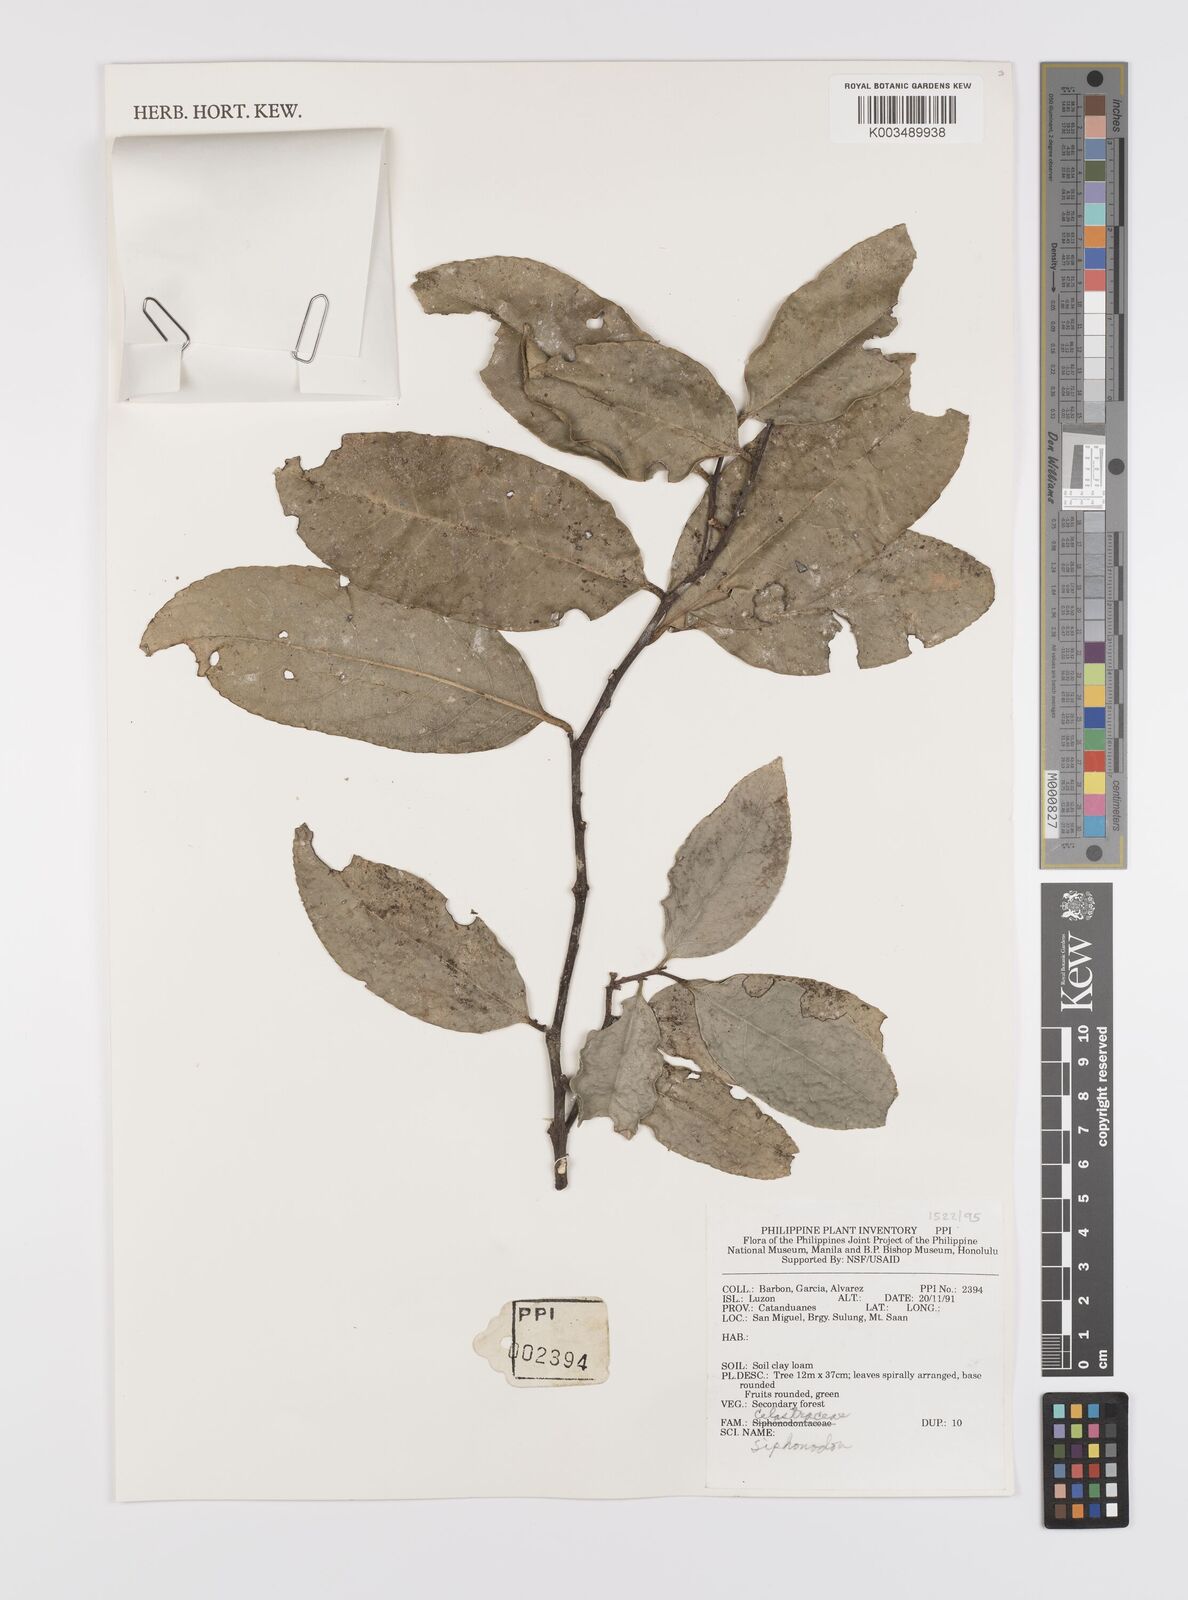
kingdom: Plantae
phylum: Tracheophyta
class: Magnoliopsida
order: Celastrales
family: Celastraceae
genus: Siphonodon
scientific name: Siphonodon
